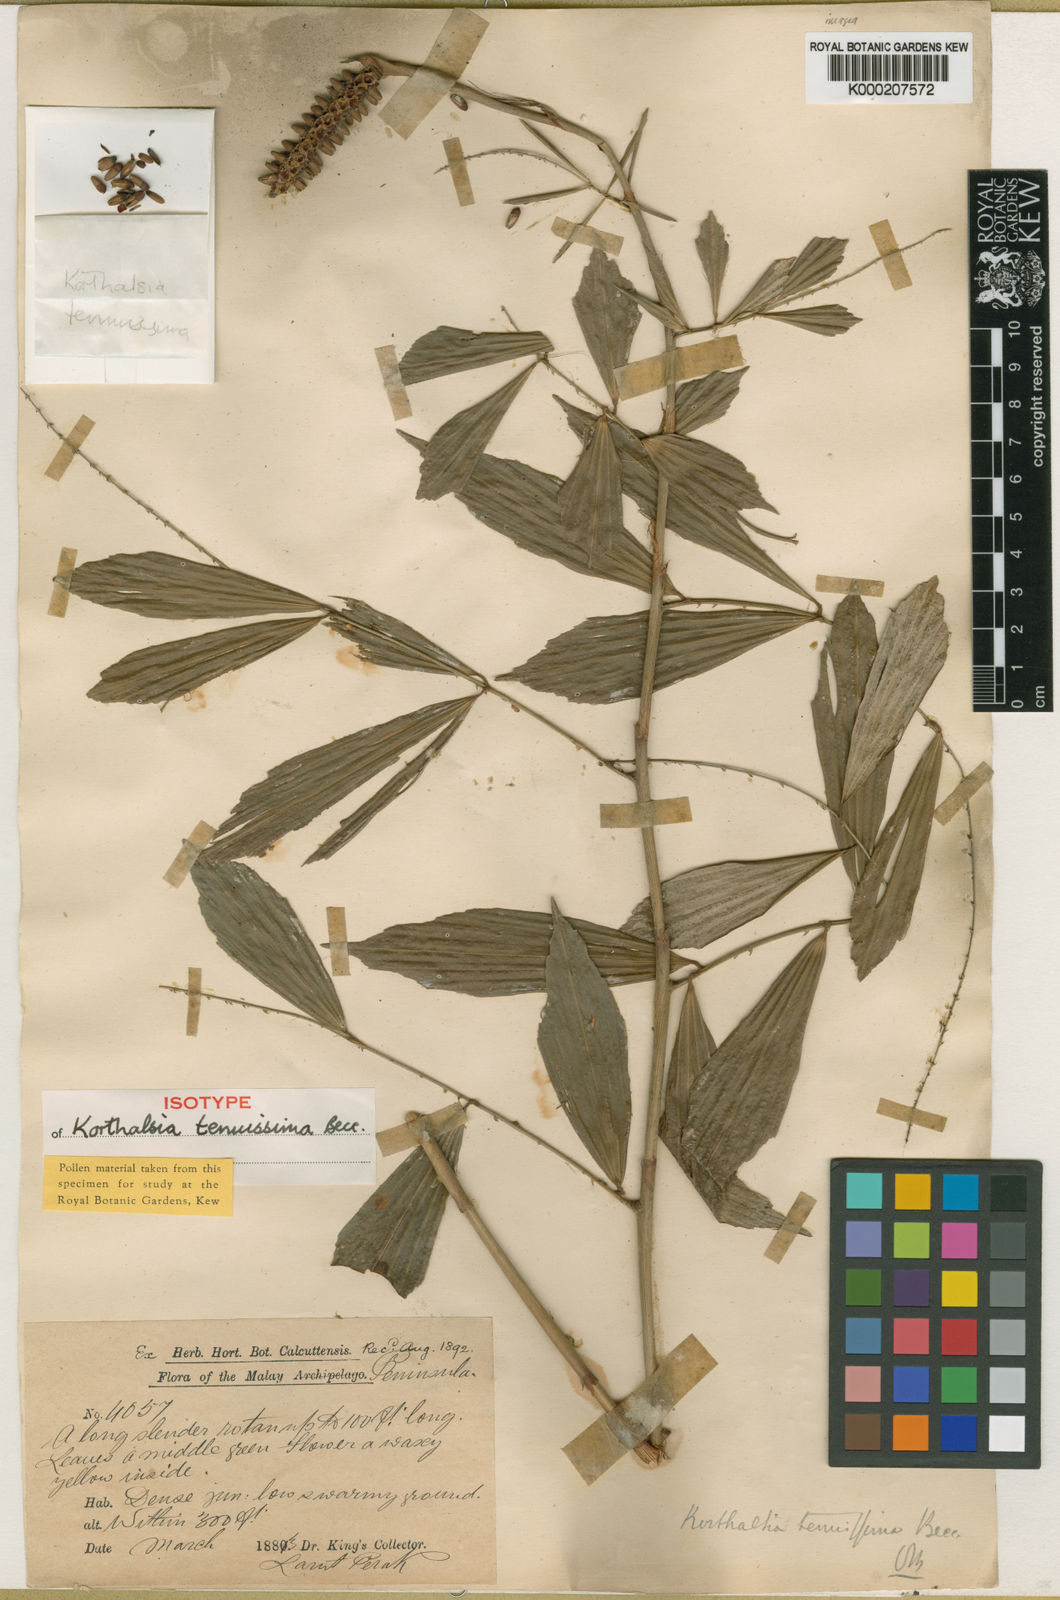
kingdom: Plantae
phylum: Tracheophyta
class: Liliopsida
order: Arecales
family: Arecaceae
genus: Korthalsia
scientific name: Korthalsia tenuissima
